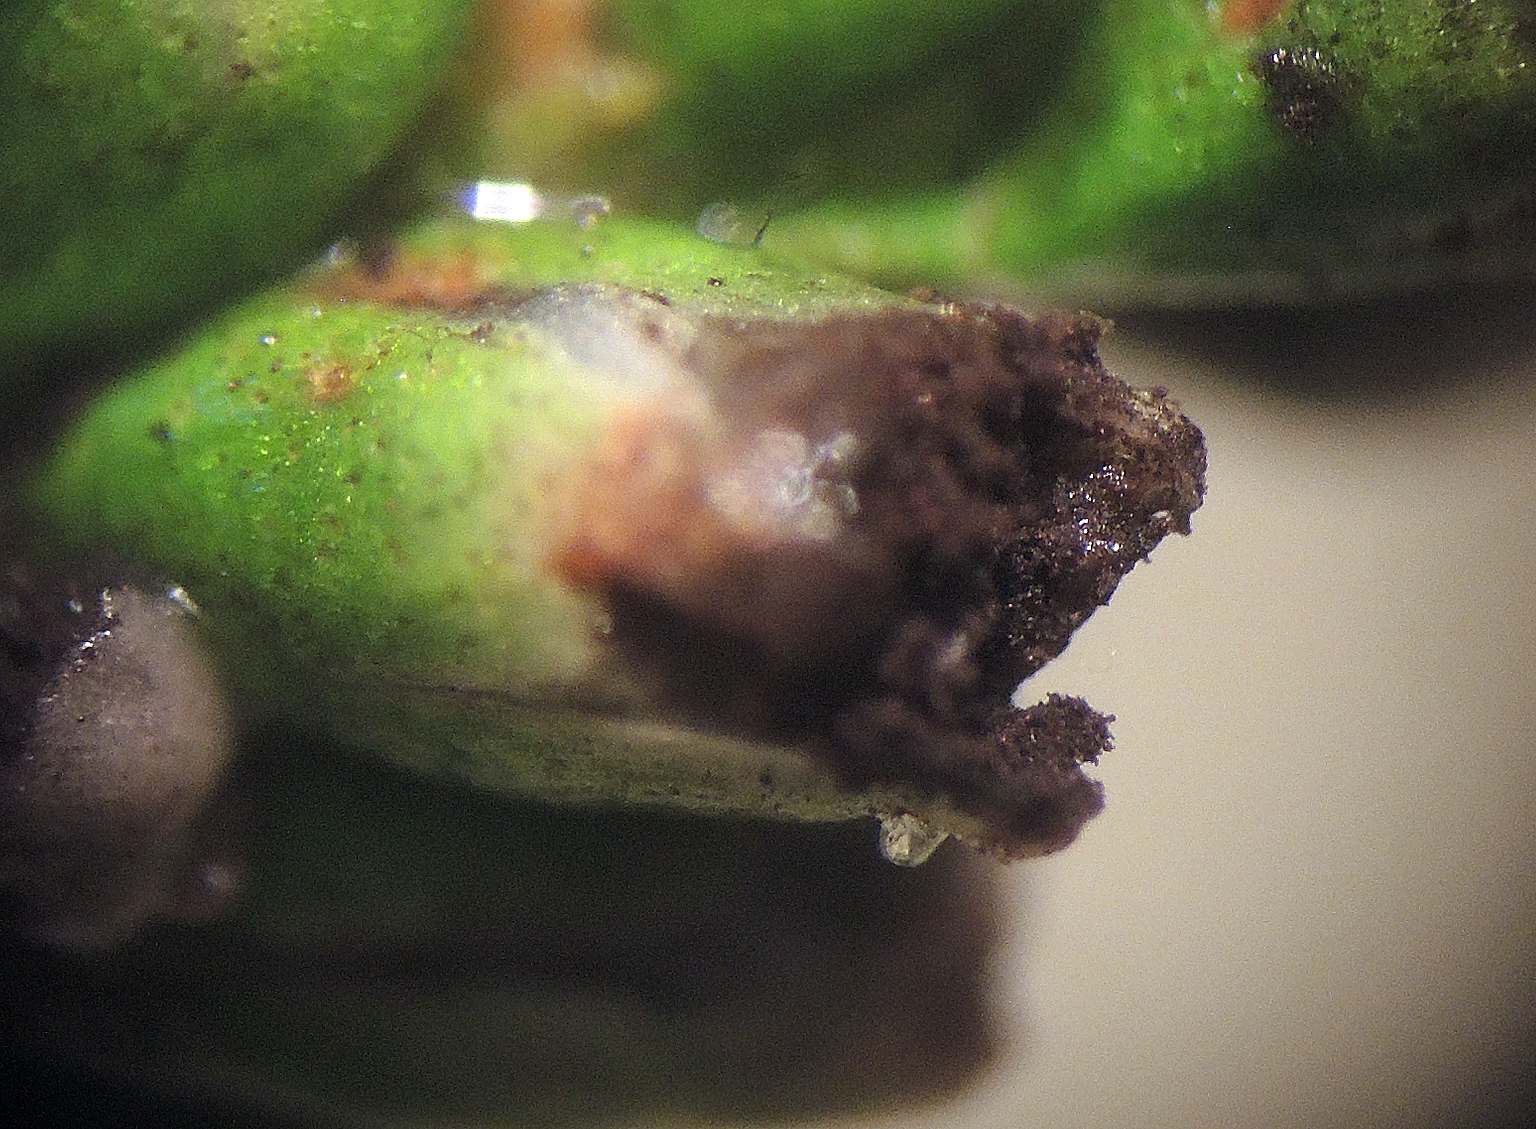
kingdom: Fungi
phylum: Basidiomycota
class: Microbotryomycetes
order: Microbotryales
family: Microbotryaceae
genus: Sphacelotheca
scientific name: Sphacelotheca hydropiperis
